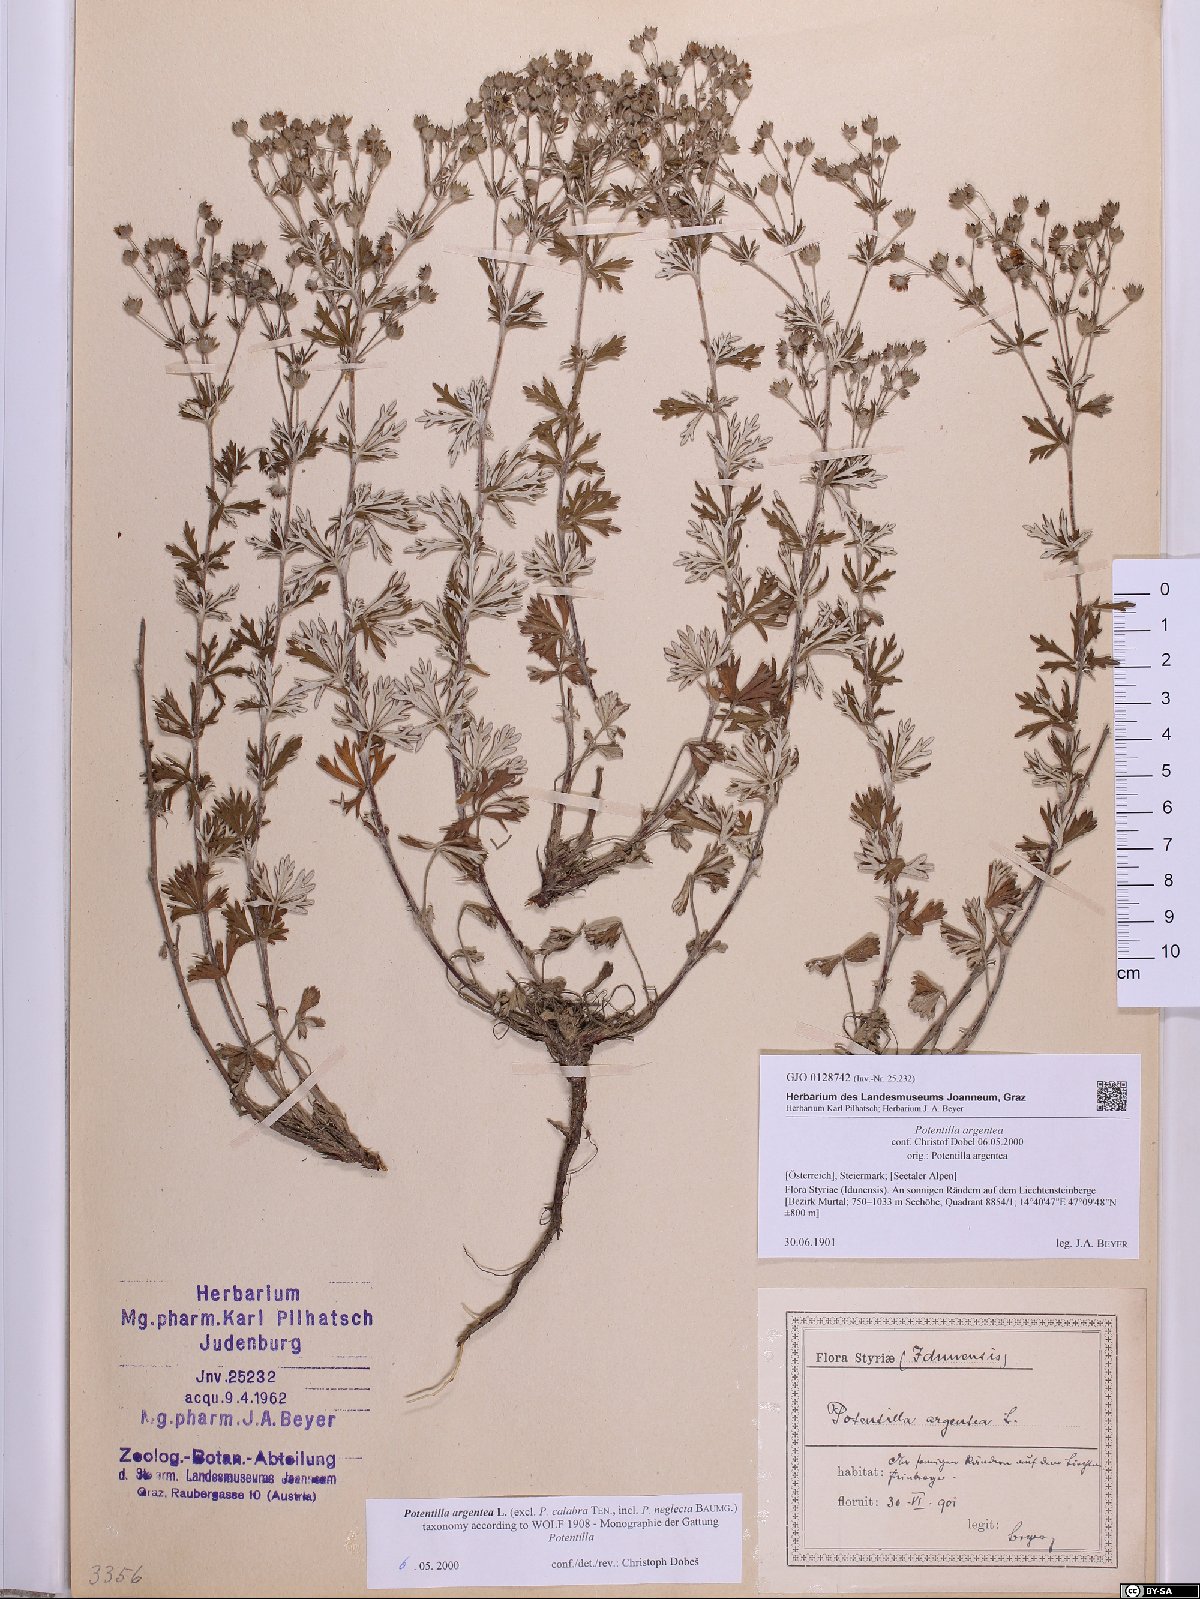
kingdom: Plantae
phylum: Tracheophyta
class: Magnoliopsida
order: Rosales
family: Rosaceae
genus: Potentilla
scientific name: Potentilla argentea
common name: Hoary cinquefoil
